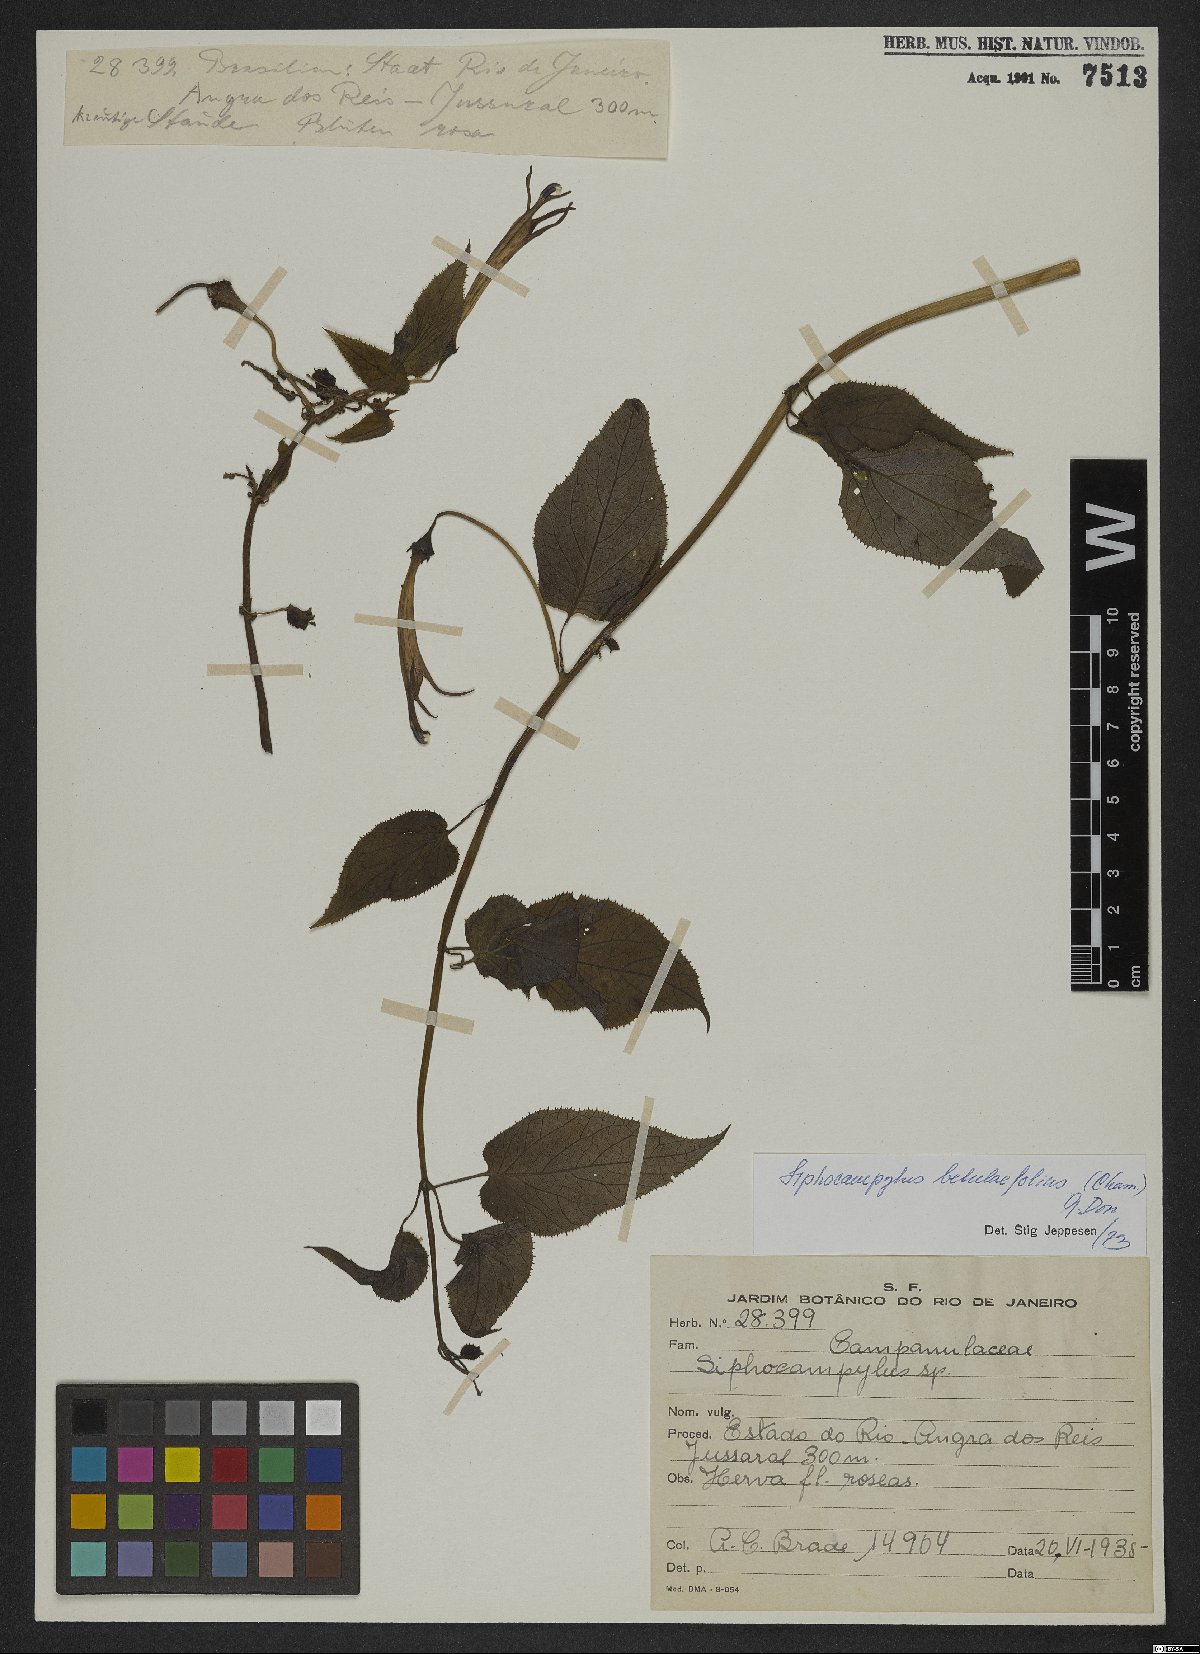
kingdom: Plantae
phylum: Tracheophyta
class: Magnoliopsida
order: Asterales
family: Campanulaceae
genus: Siphocampylus
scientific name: Siphocampylus betulifolius
